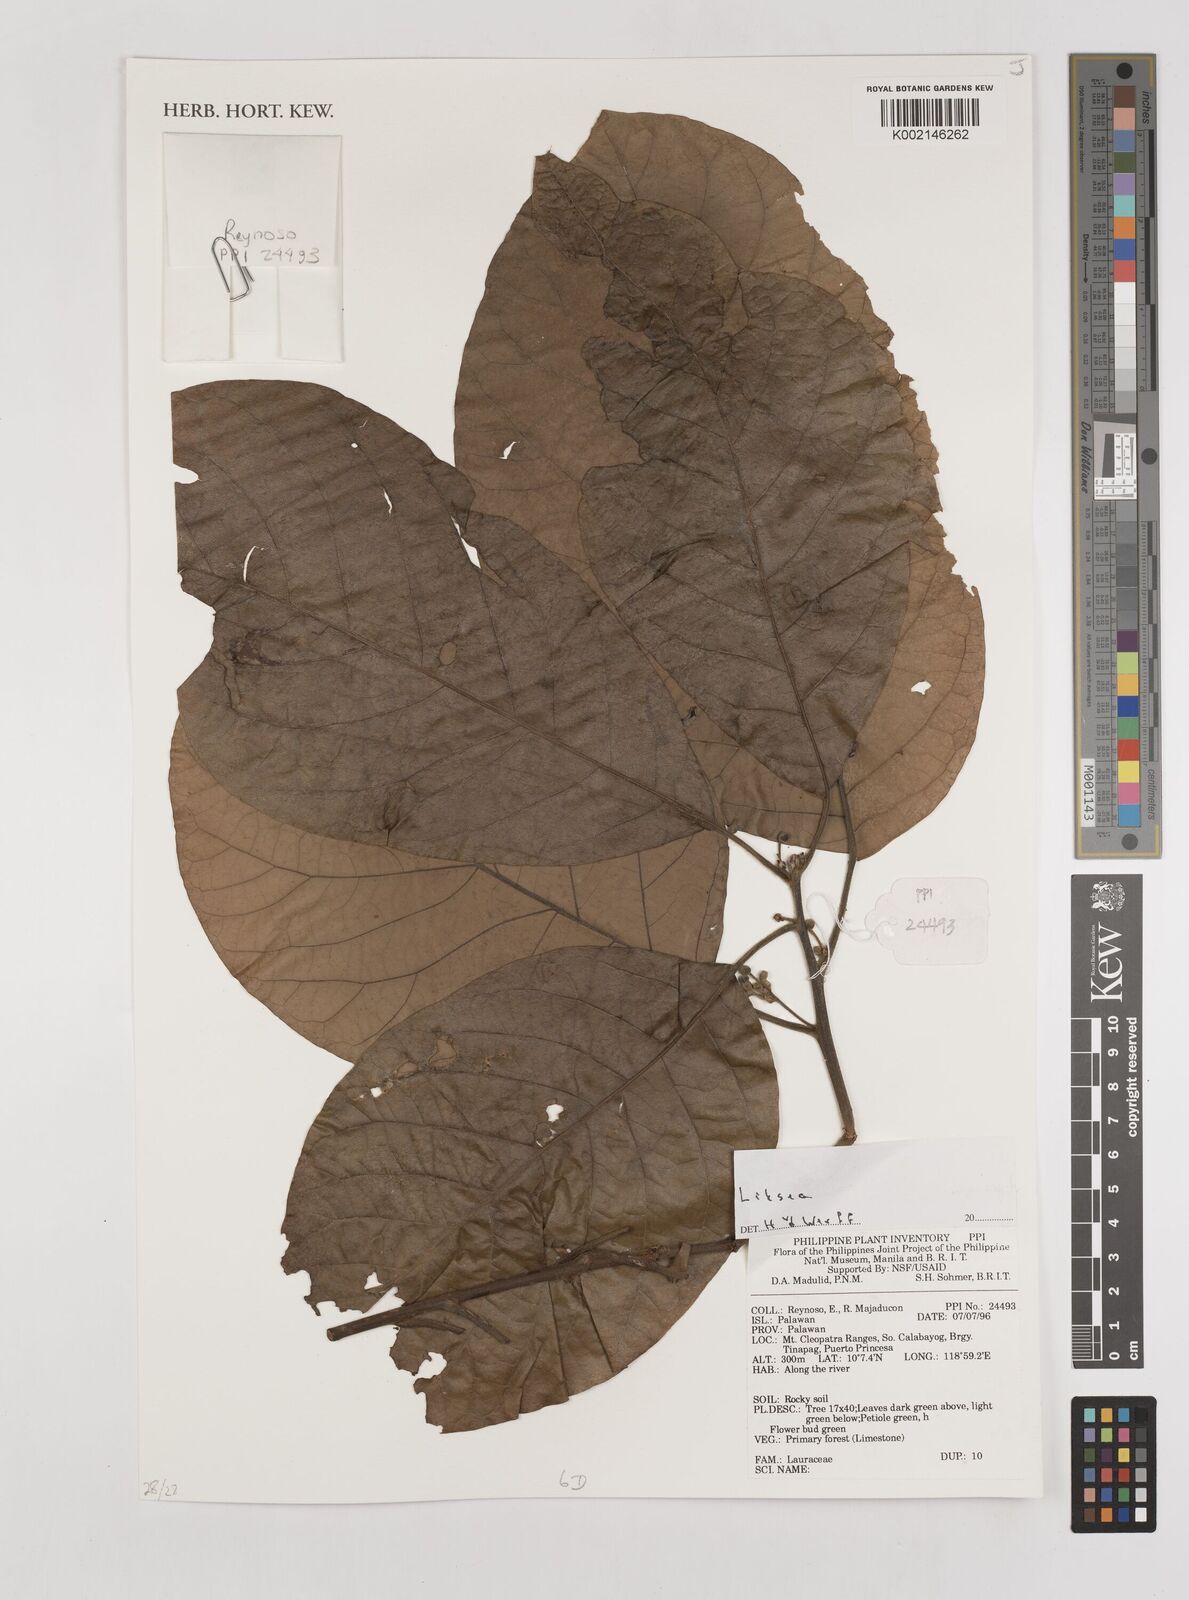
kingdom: Plantae
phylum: Tracheophyta
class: Magnoliopsida
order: Laurales
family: Lauraceae
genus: Litsea
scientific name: Litsea
